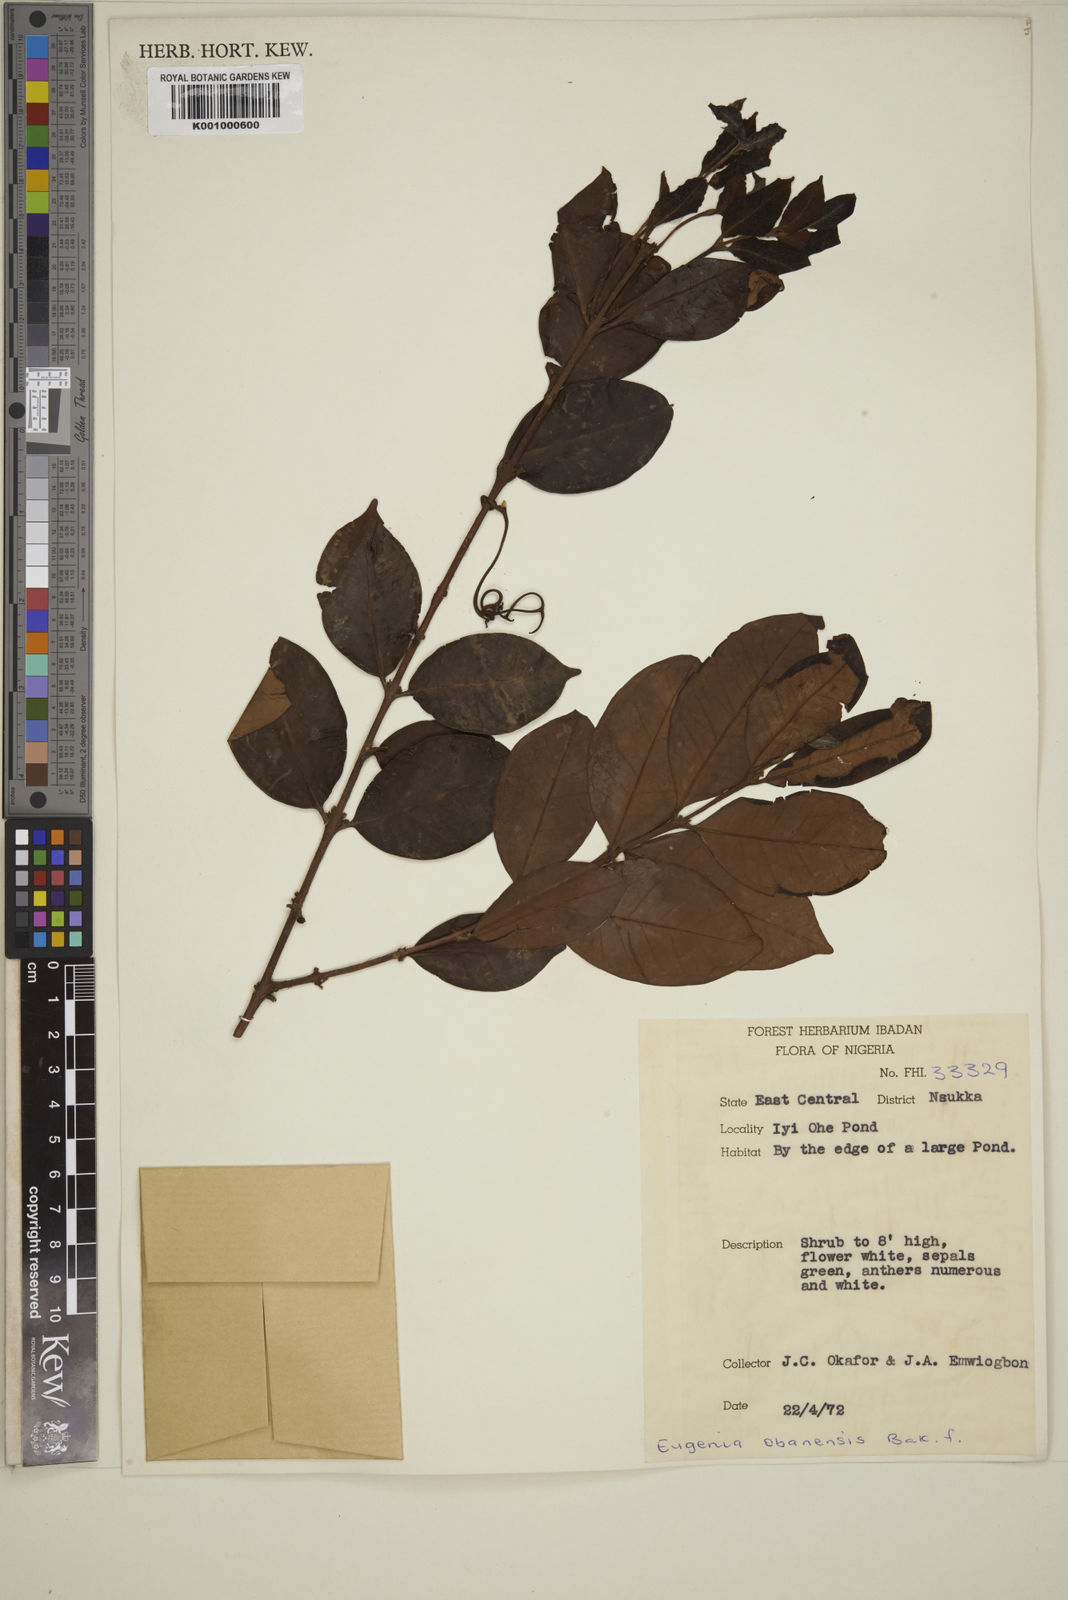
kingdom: Plantae
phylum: Tracheophyta
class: Magnoliopsida
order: Myrtales
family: Myrtaceae
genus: Eugenia
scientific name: Eugenia obanensis
